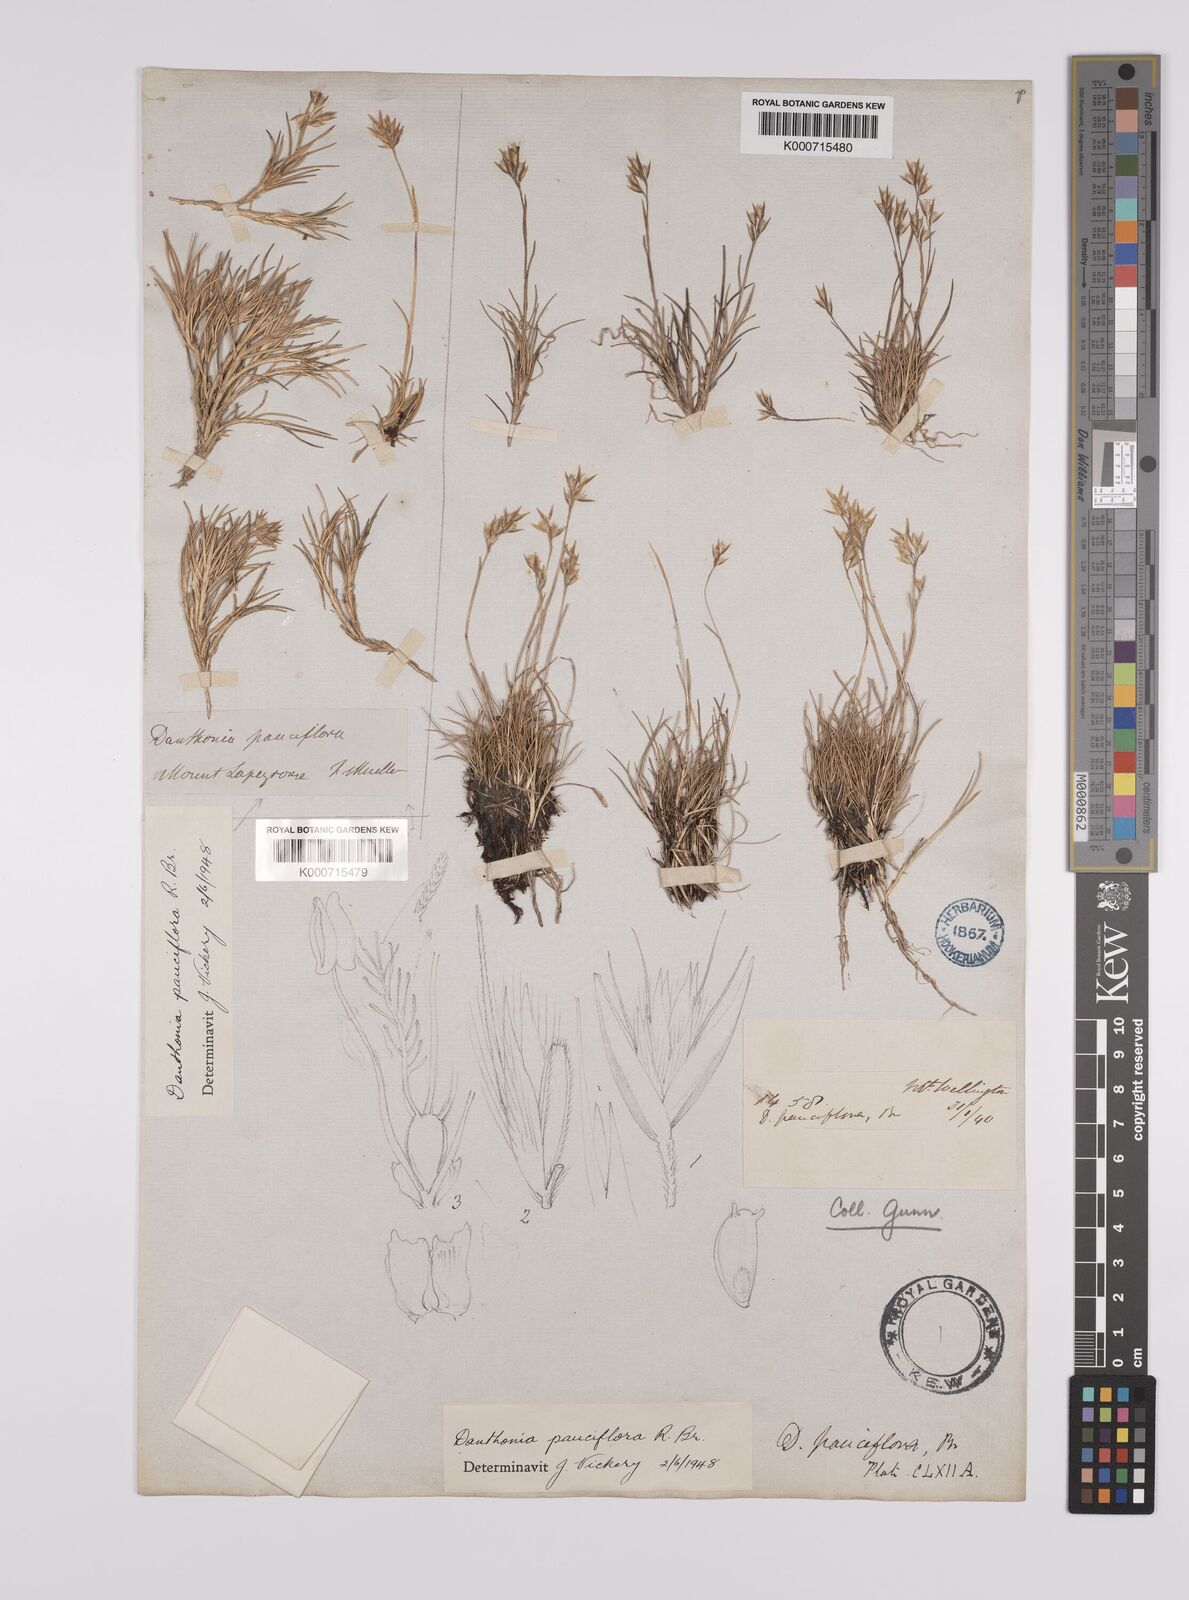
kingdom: Plantae
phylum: Tracheophyta
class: Liliopsida
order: Poales
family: Poaceae
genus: Rytidosperma
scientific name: Rytidosperma pauciflorum
